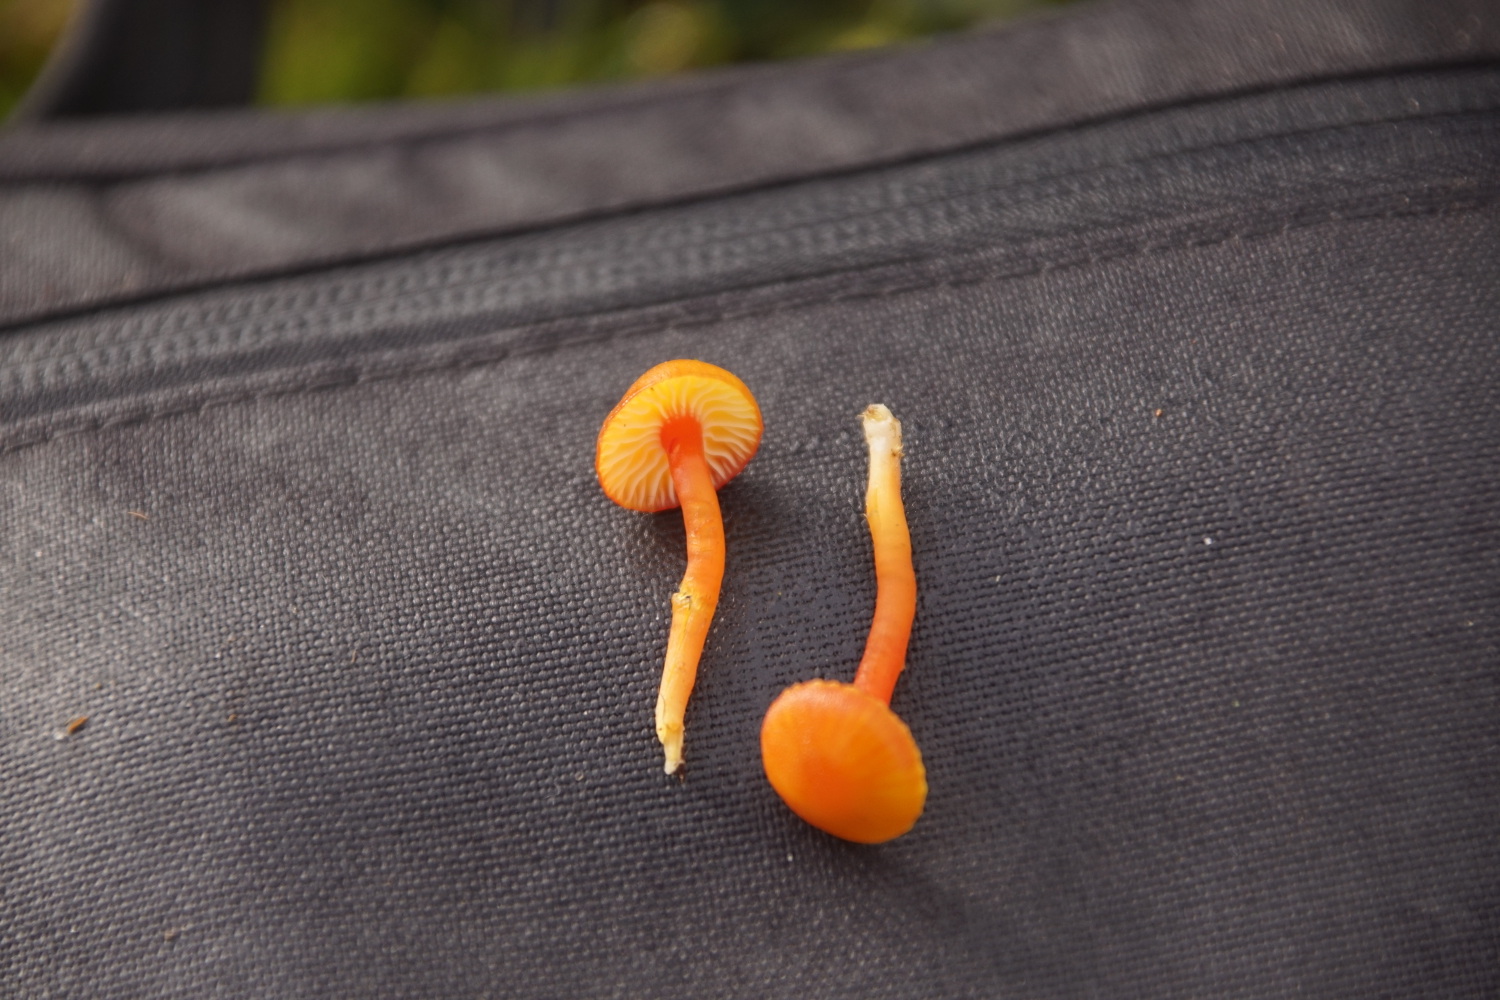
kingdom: Fungi
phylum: Basidiomycota
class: Agaricomycetes
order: Agaricales
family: Hygrophoraceae
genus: Hygrocybe
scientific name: Hygrocybe insipida
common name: liden vokshat
